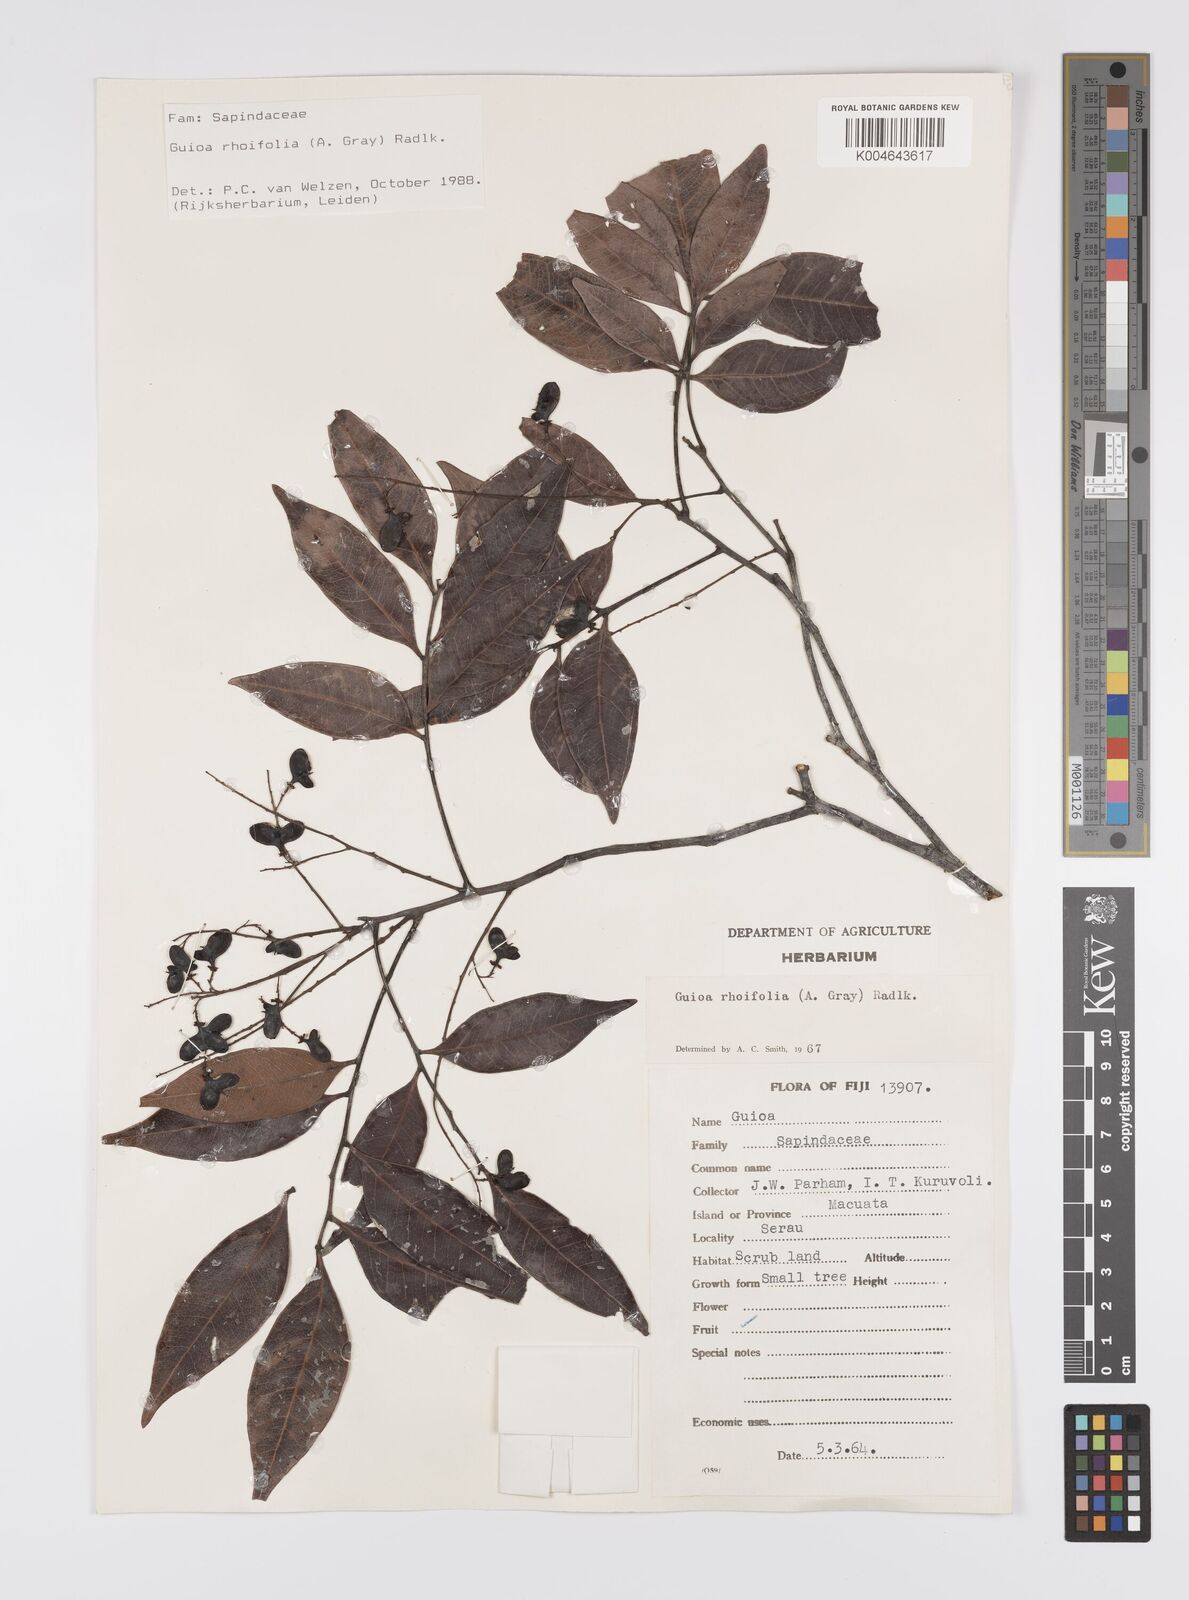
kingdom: Plantae
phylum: Tracheophyta
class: Magnoliopsida
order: Sapindales
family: Sapindaceae
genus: Guioa
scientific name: Guioa rhoifolia
